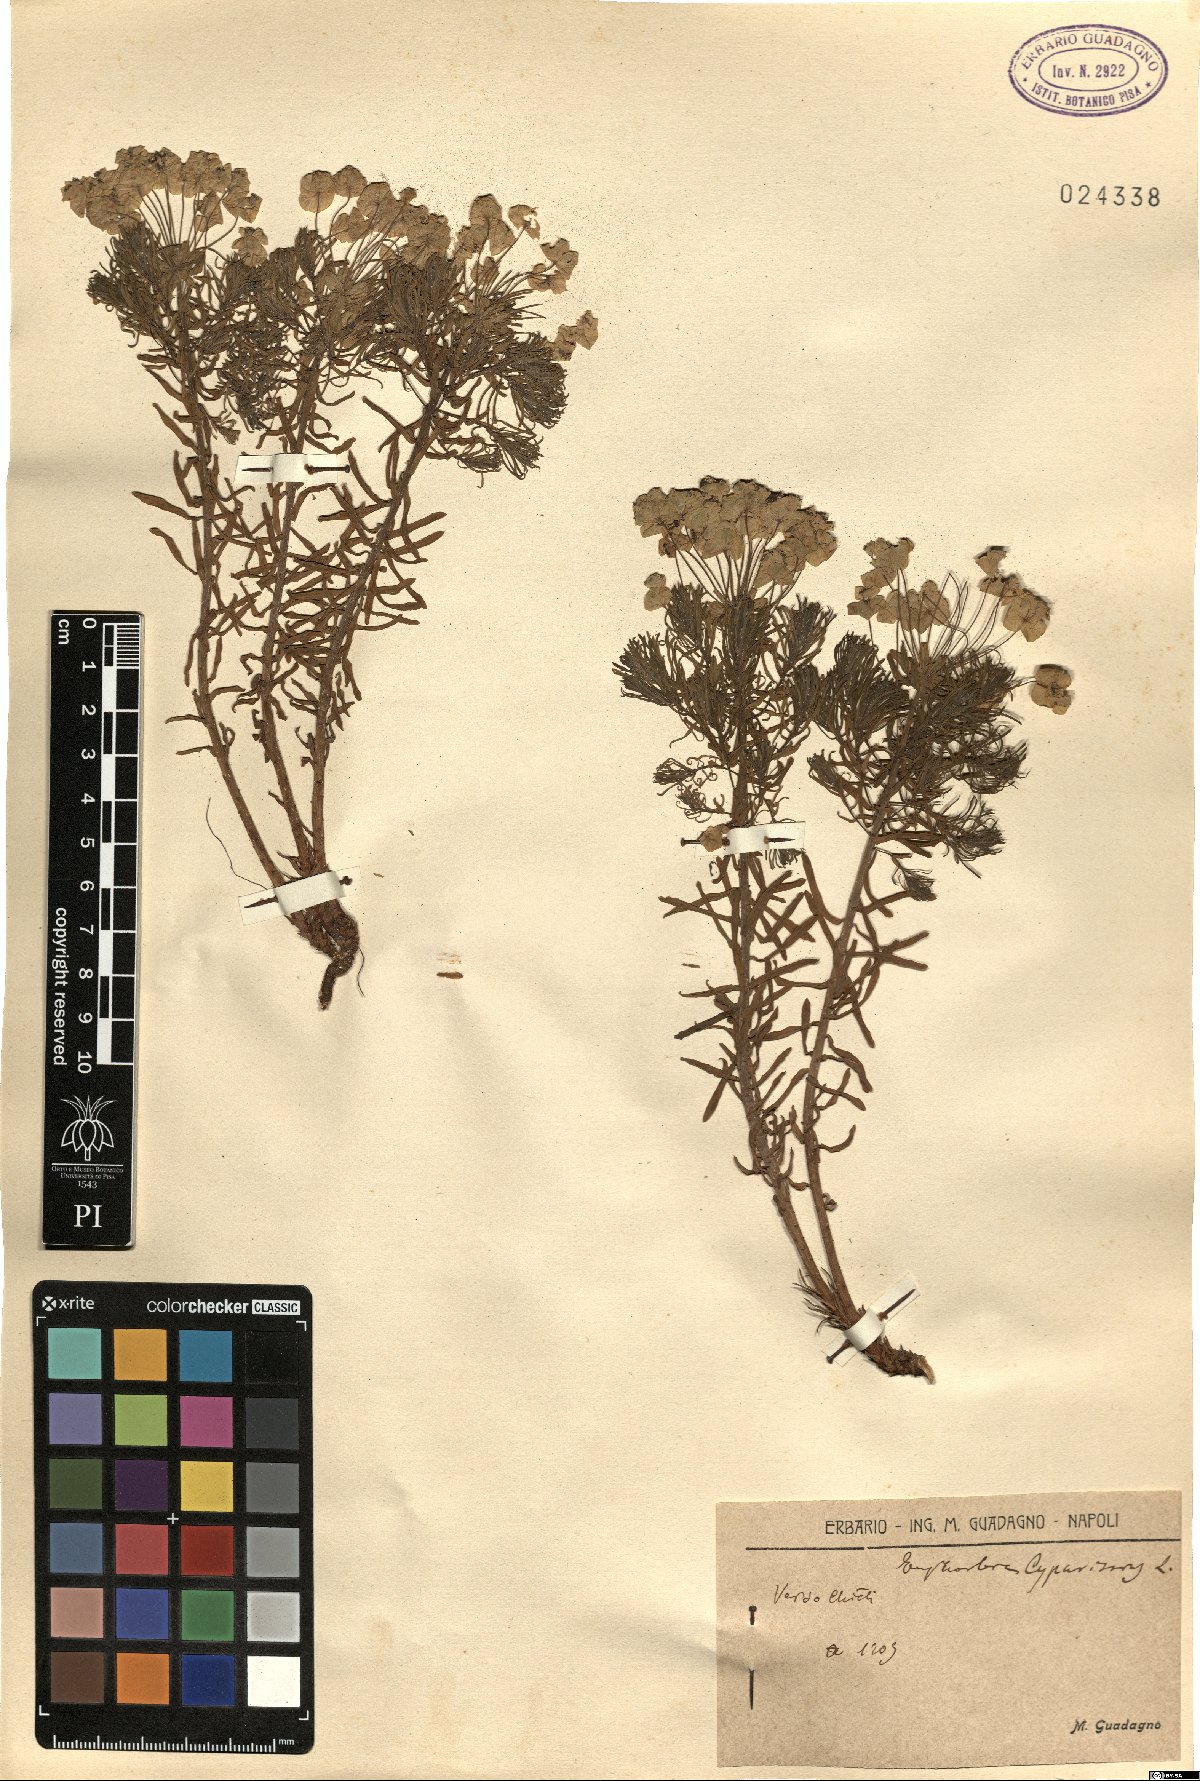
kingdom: Plantae
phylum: Tracheophyta
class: Magnoliopsida
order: Malpighiales
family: Euphorbiaceae
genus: Euphorbia
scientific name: Euphorbia cyparissias
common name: Cypress spurge
